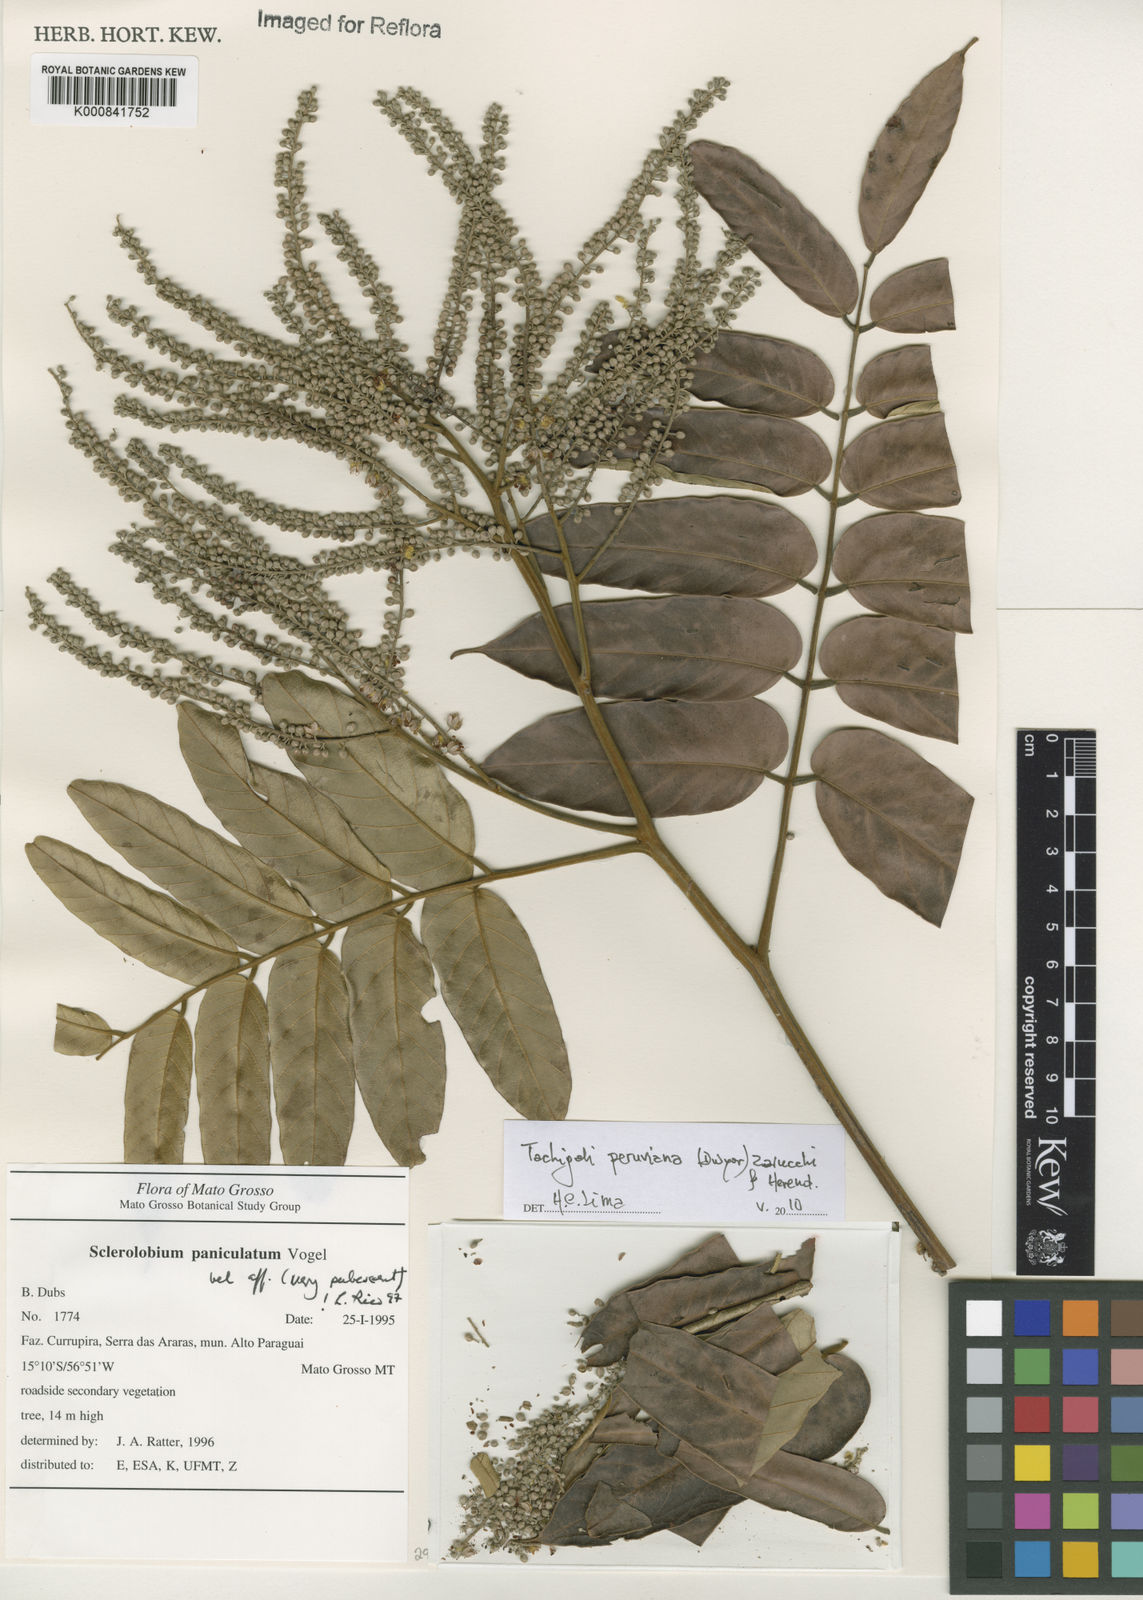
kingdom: Plantae
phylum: Tracheophyta
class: Magnoliopsida
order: Fabales
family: Fabaceae
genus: Tachigali
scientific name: Tachigali peruviana
